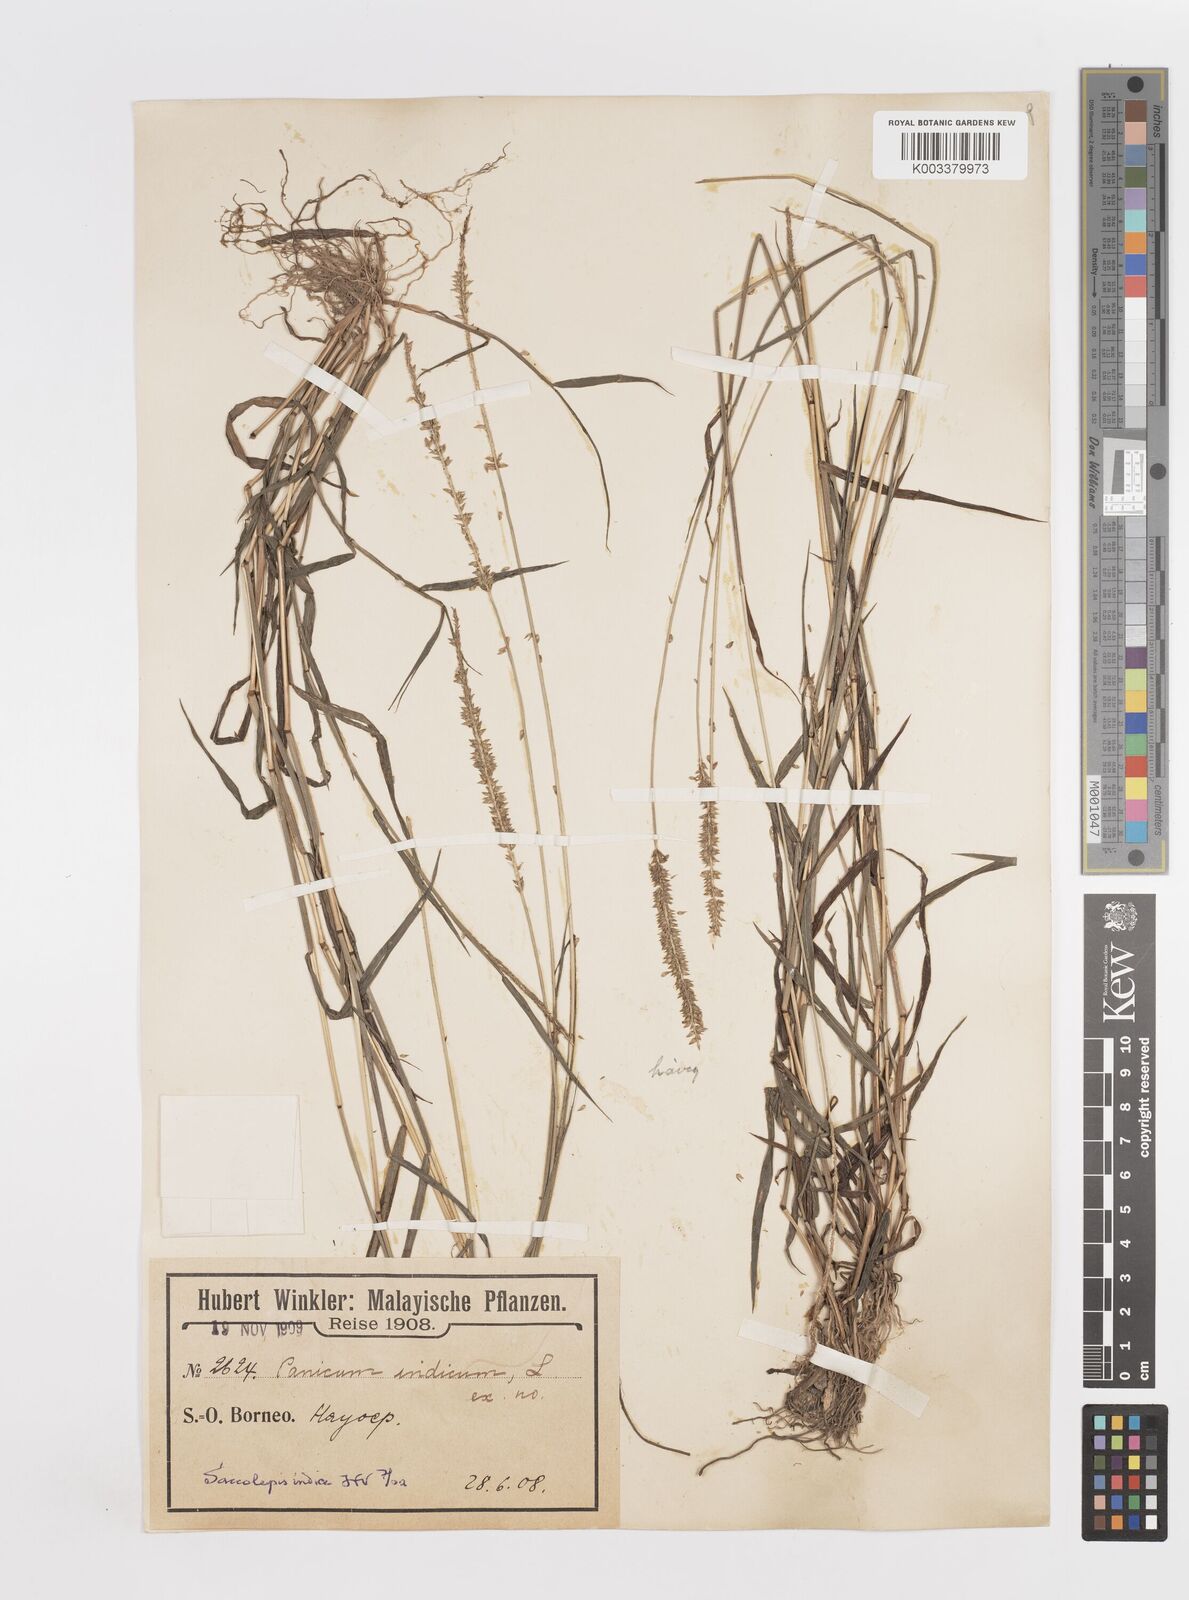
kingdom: Plantae
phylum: Tracheophyta
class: Liliopsida
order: Poales
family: Poaceae
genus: Sacciolepis
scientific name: Sacciolepis indica
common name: Glenwoodgrass
